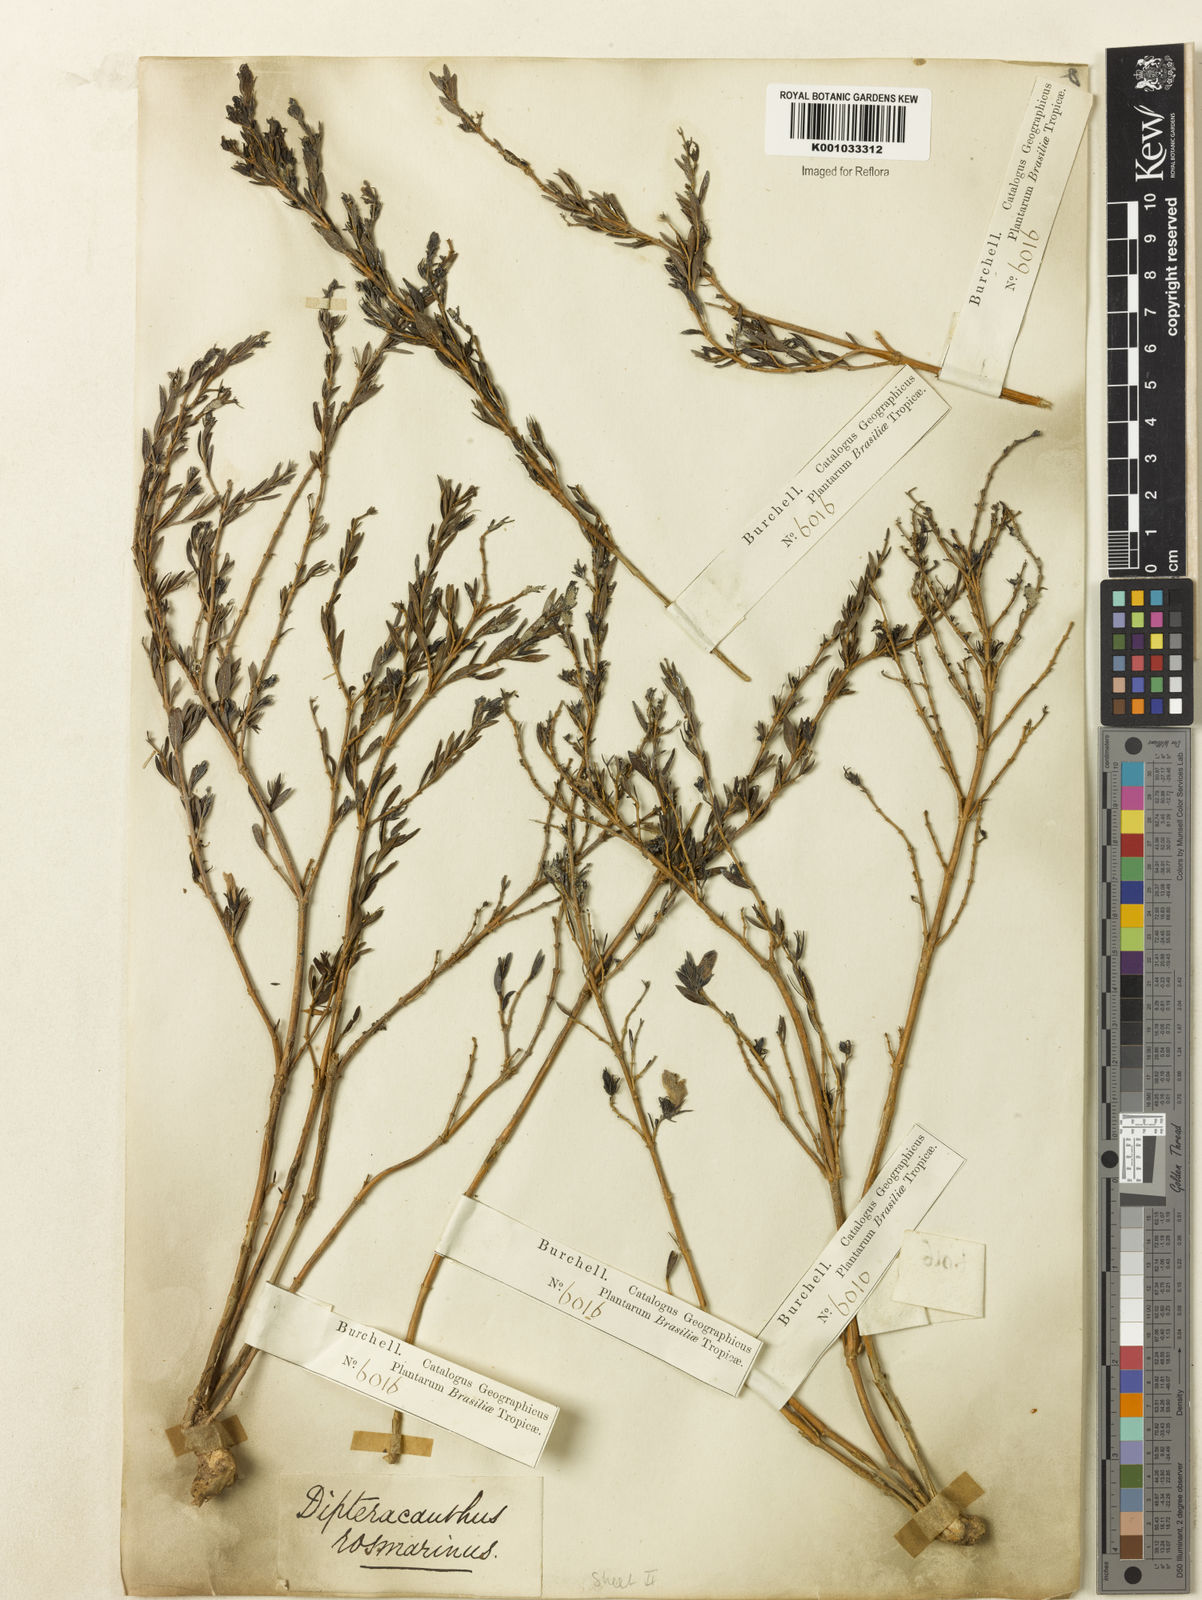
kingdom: Plantae
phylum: Tracheophyta
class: Magnoliopsida
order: Lamiales
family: Acanthaceae
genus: Justicia
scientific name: Justicia
